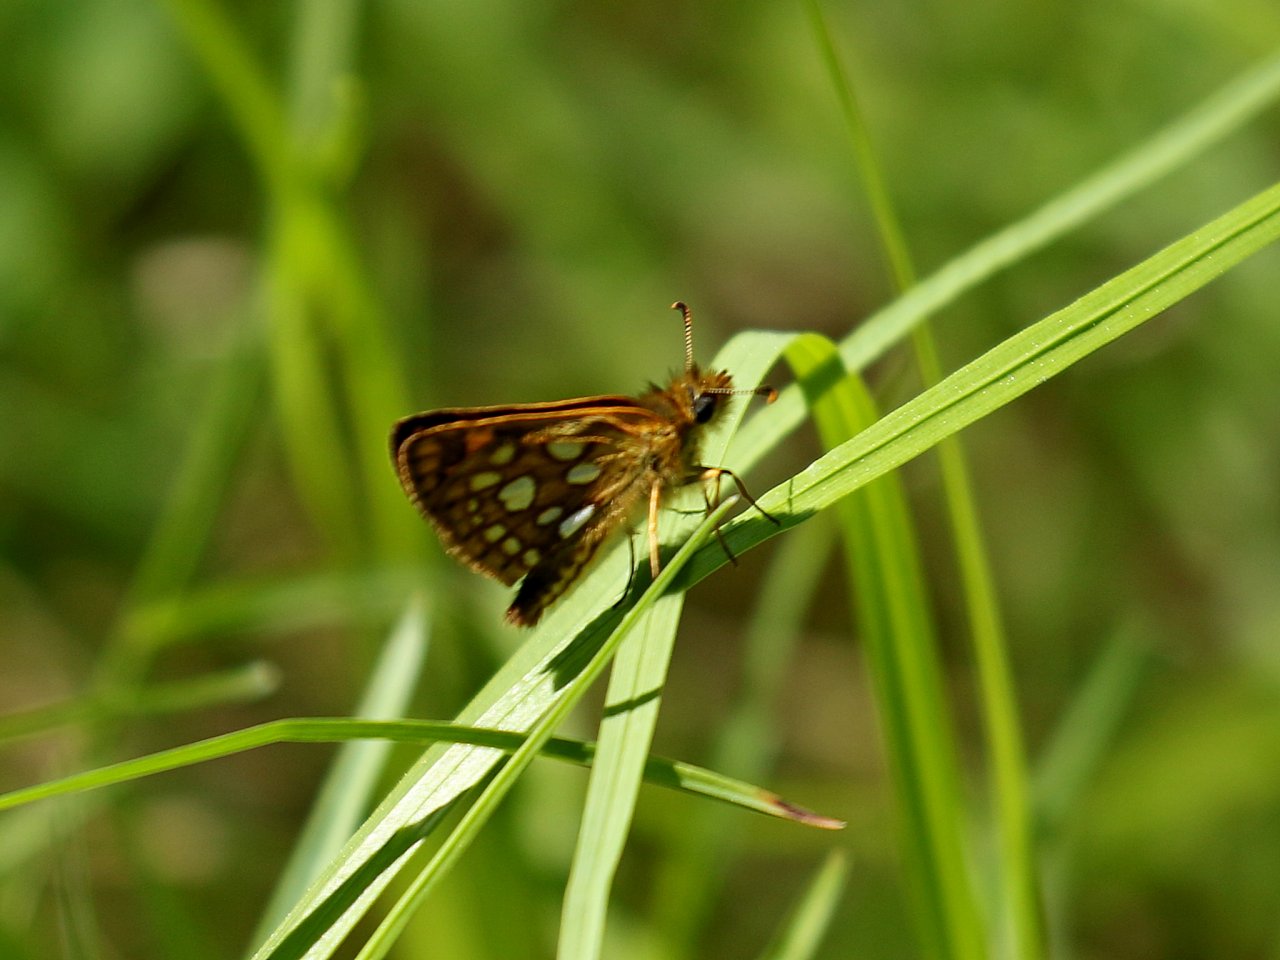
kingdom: Animalia
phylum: Arthropoda
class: Insecta
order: Lepidoptera
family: Hesperiidae
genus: Carterocephalus
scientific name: Carterocephalus palaemon
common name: Chequered Skipper
